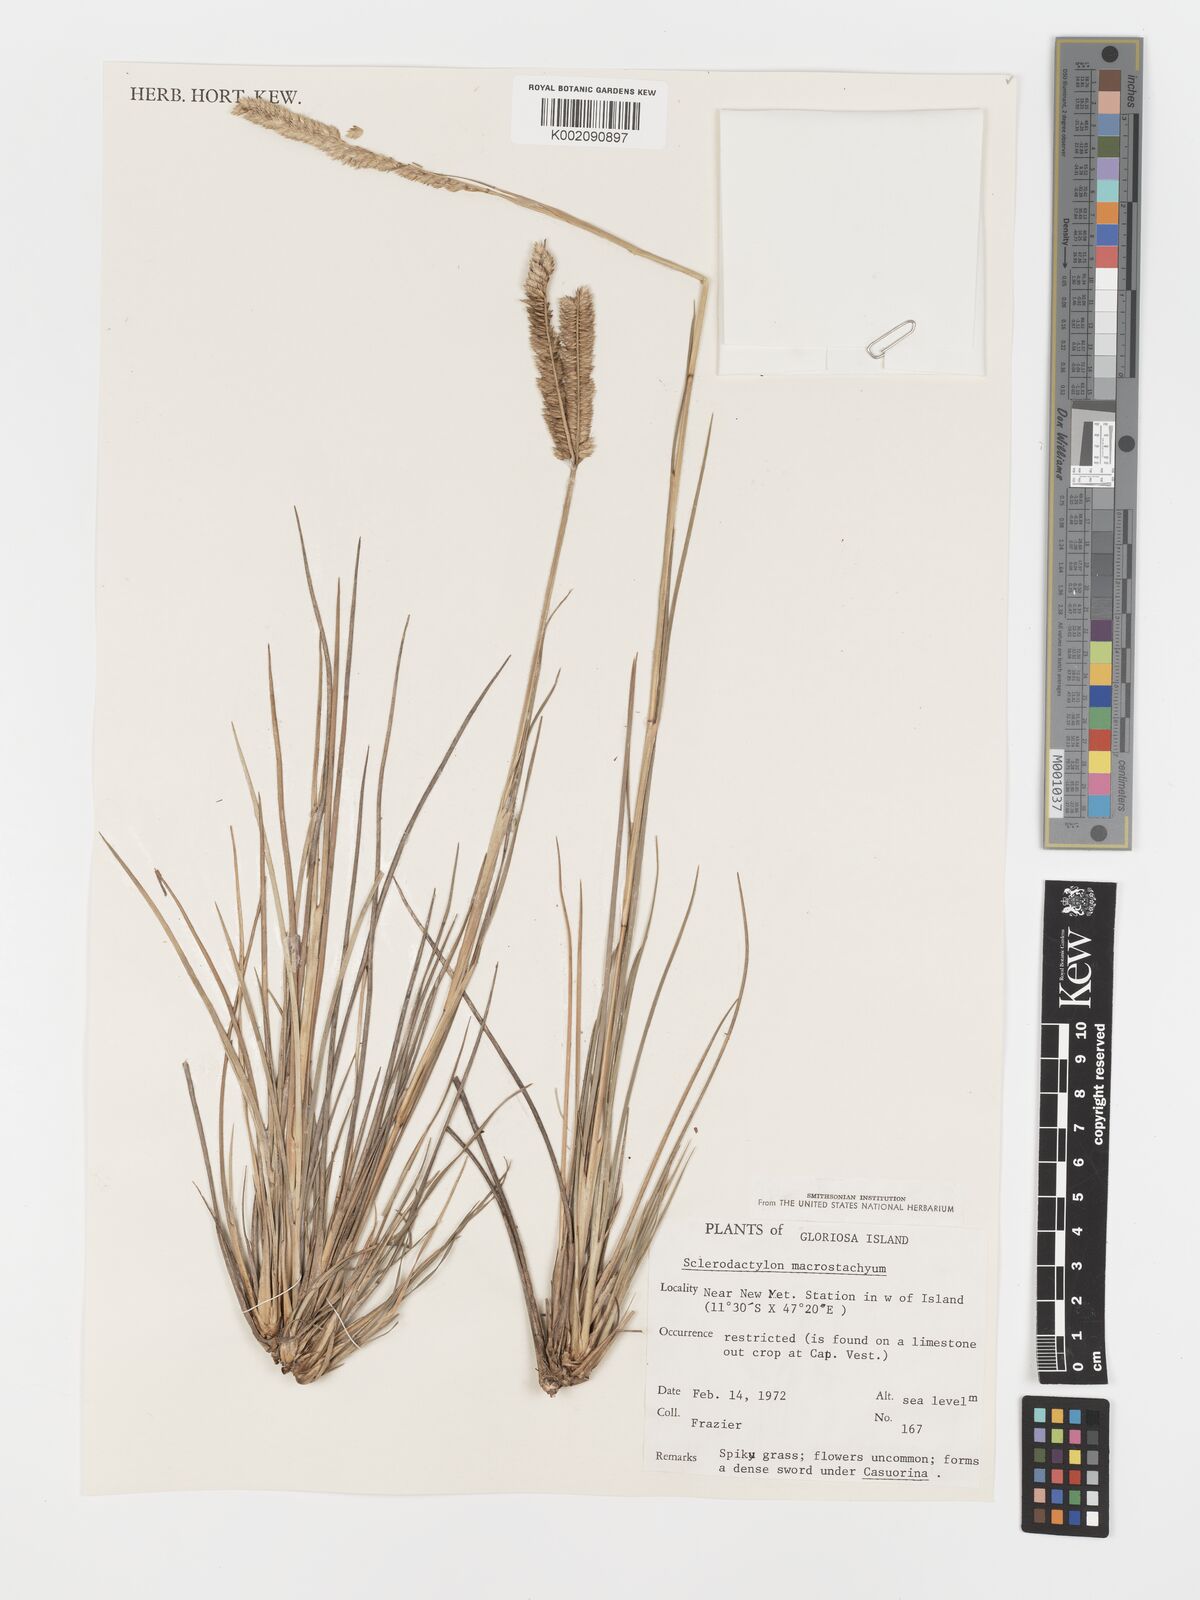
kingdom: Plantae
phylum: Tracheophyta
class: Liliopsida
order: Poales
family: Poaceae
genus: Sclerodactylon
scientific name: Sclerodactylon macrostachyum
